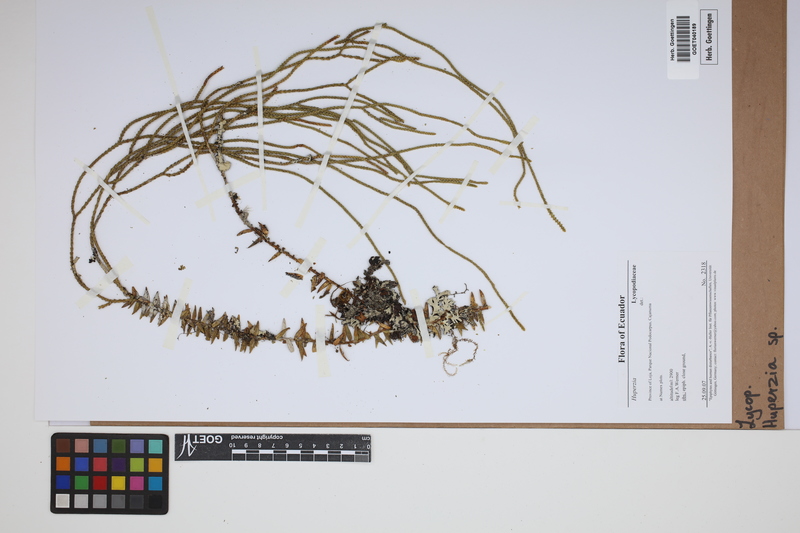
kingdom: Plantae
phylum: Tracheophyta
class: Lycopodiopsida
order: Lycopodiales
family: Lycopodiaceae
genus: Phlegmariurus
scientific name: Phlegmariurus
